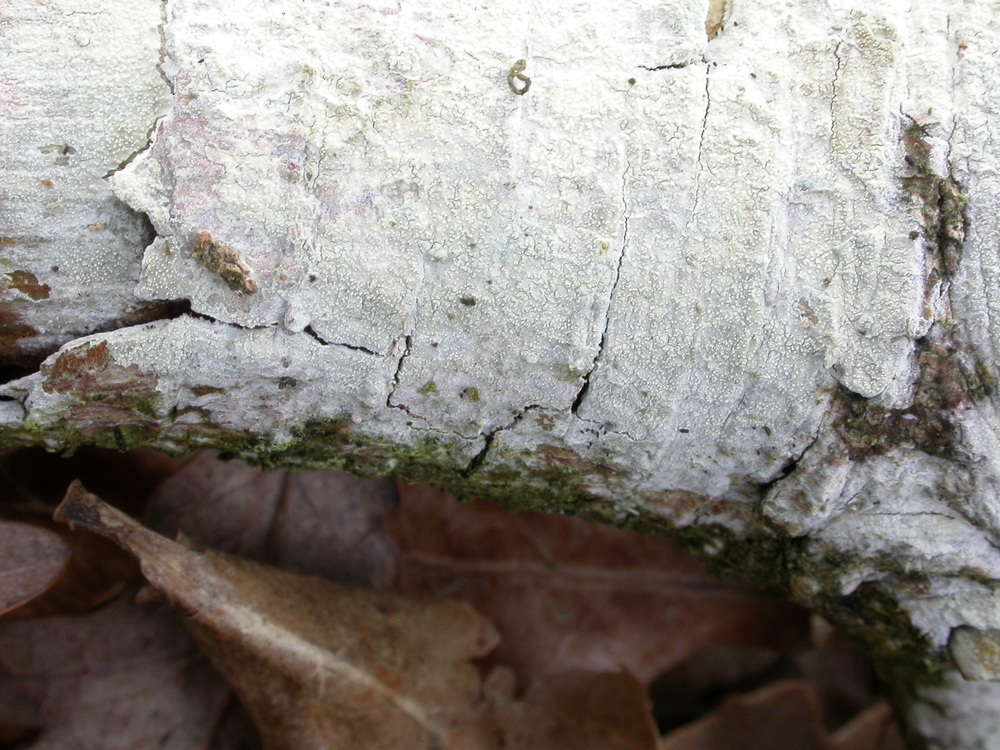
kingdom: Fungi
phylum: Basidiomycota
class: Agaricomycetes
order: Corticiales
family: Corticiaceae
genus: Lyomyces
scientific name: Lyomyces crustosus
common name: vortet hyldehinde
